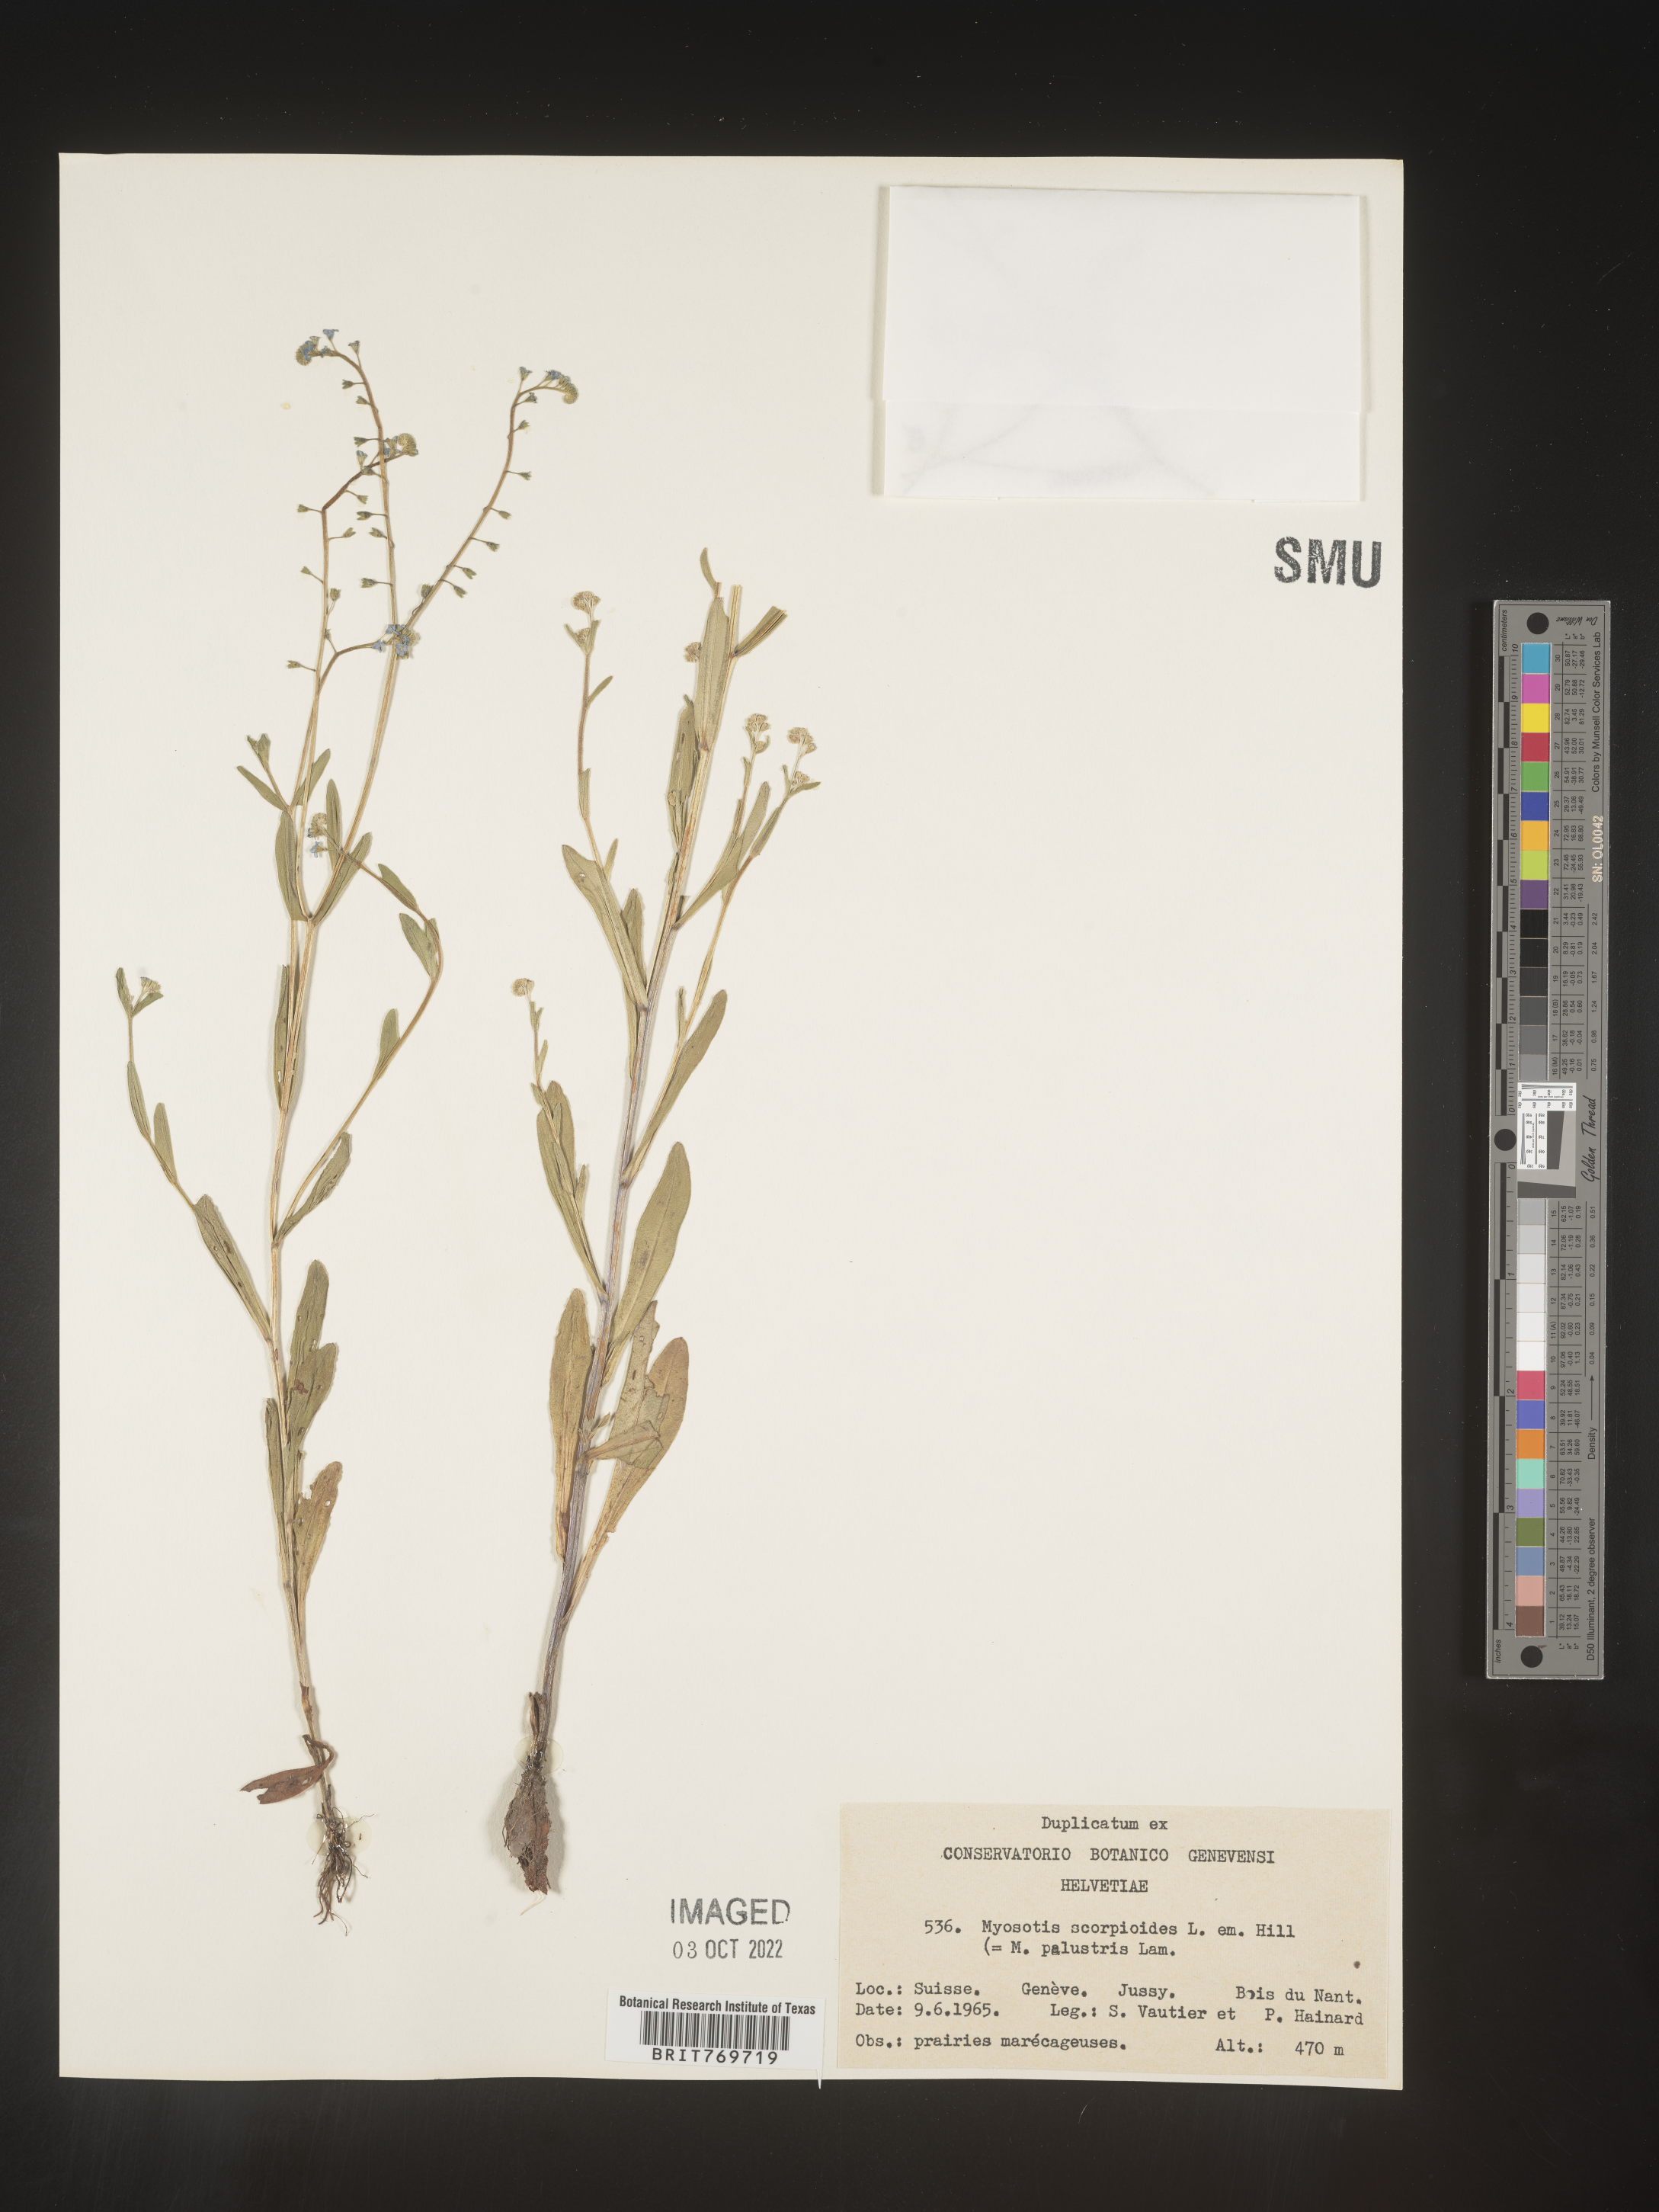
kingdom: Plantae
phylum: Tracheophyta
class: Magnoliopsida
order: Boraginales
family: Boraginaceae
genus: Myosotis
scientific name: Myosotis
